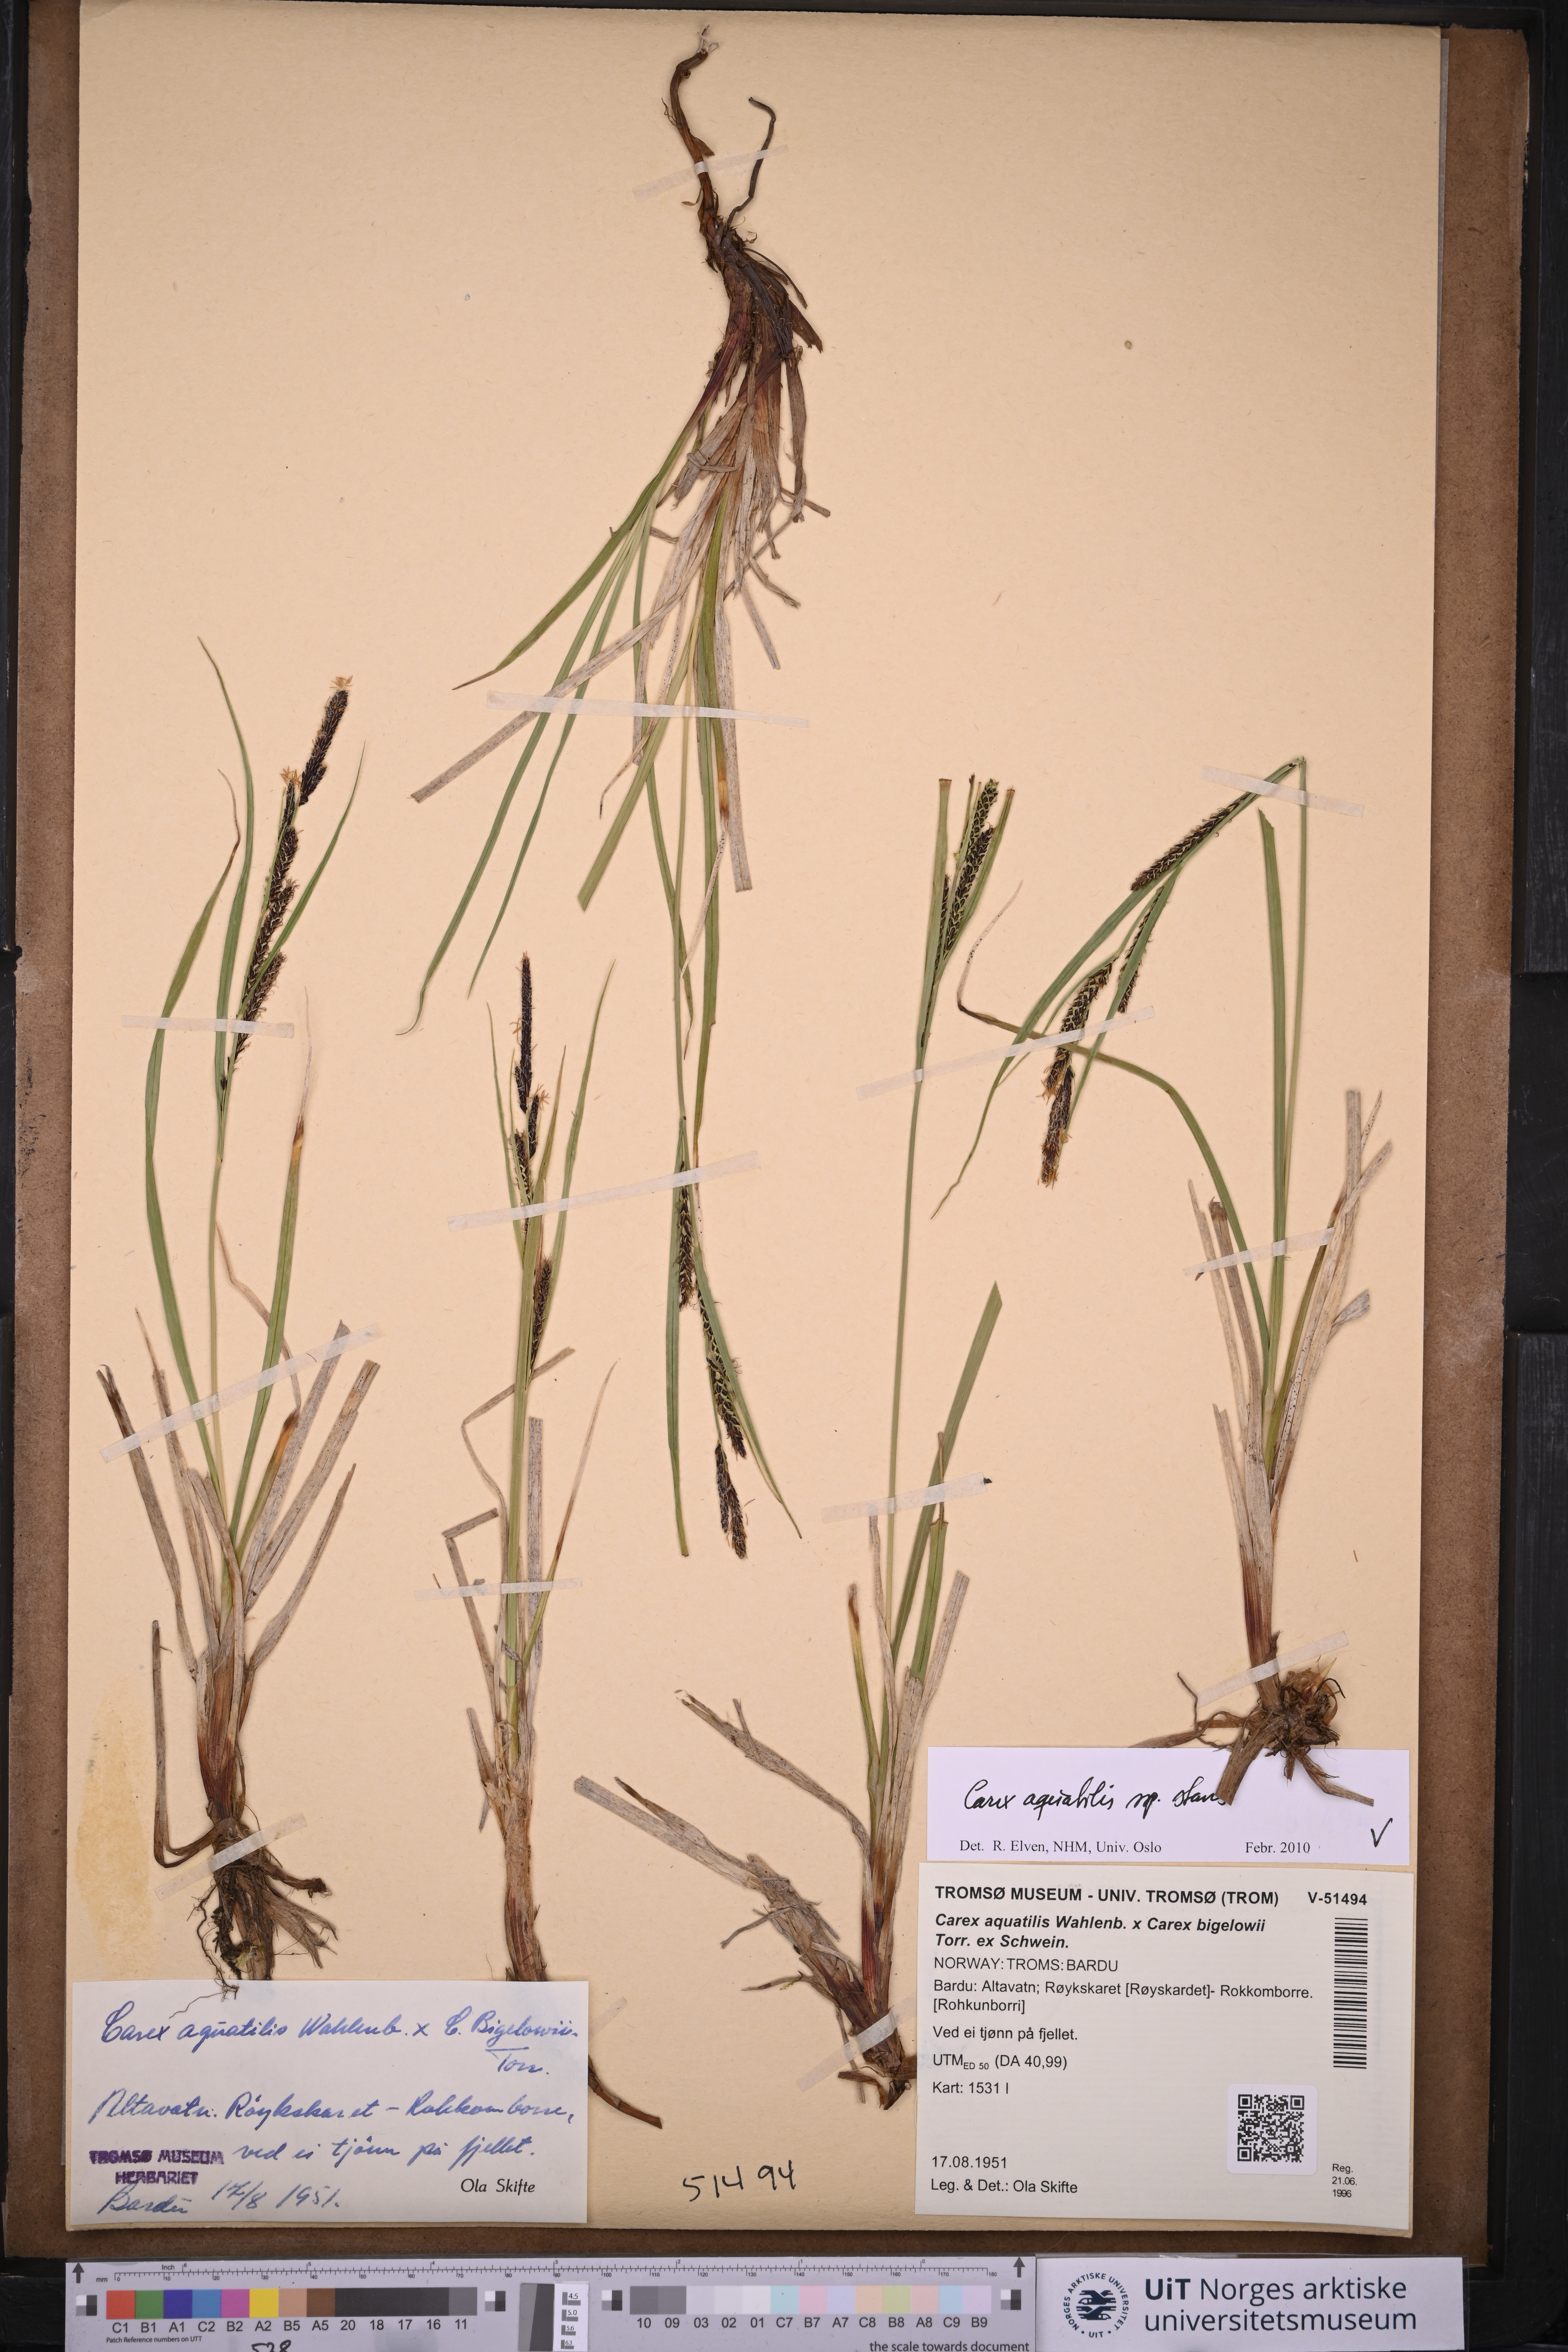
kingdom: Plantae
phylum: Tracheophyta
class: Liliopsida
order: Poales
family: Cyperaceae
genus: Carex
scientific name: Carex aquatilis
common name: Water sedge
